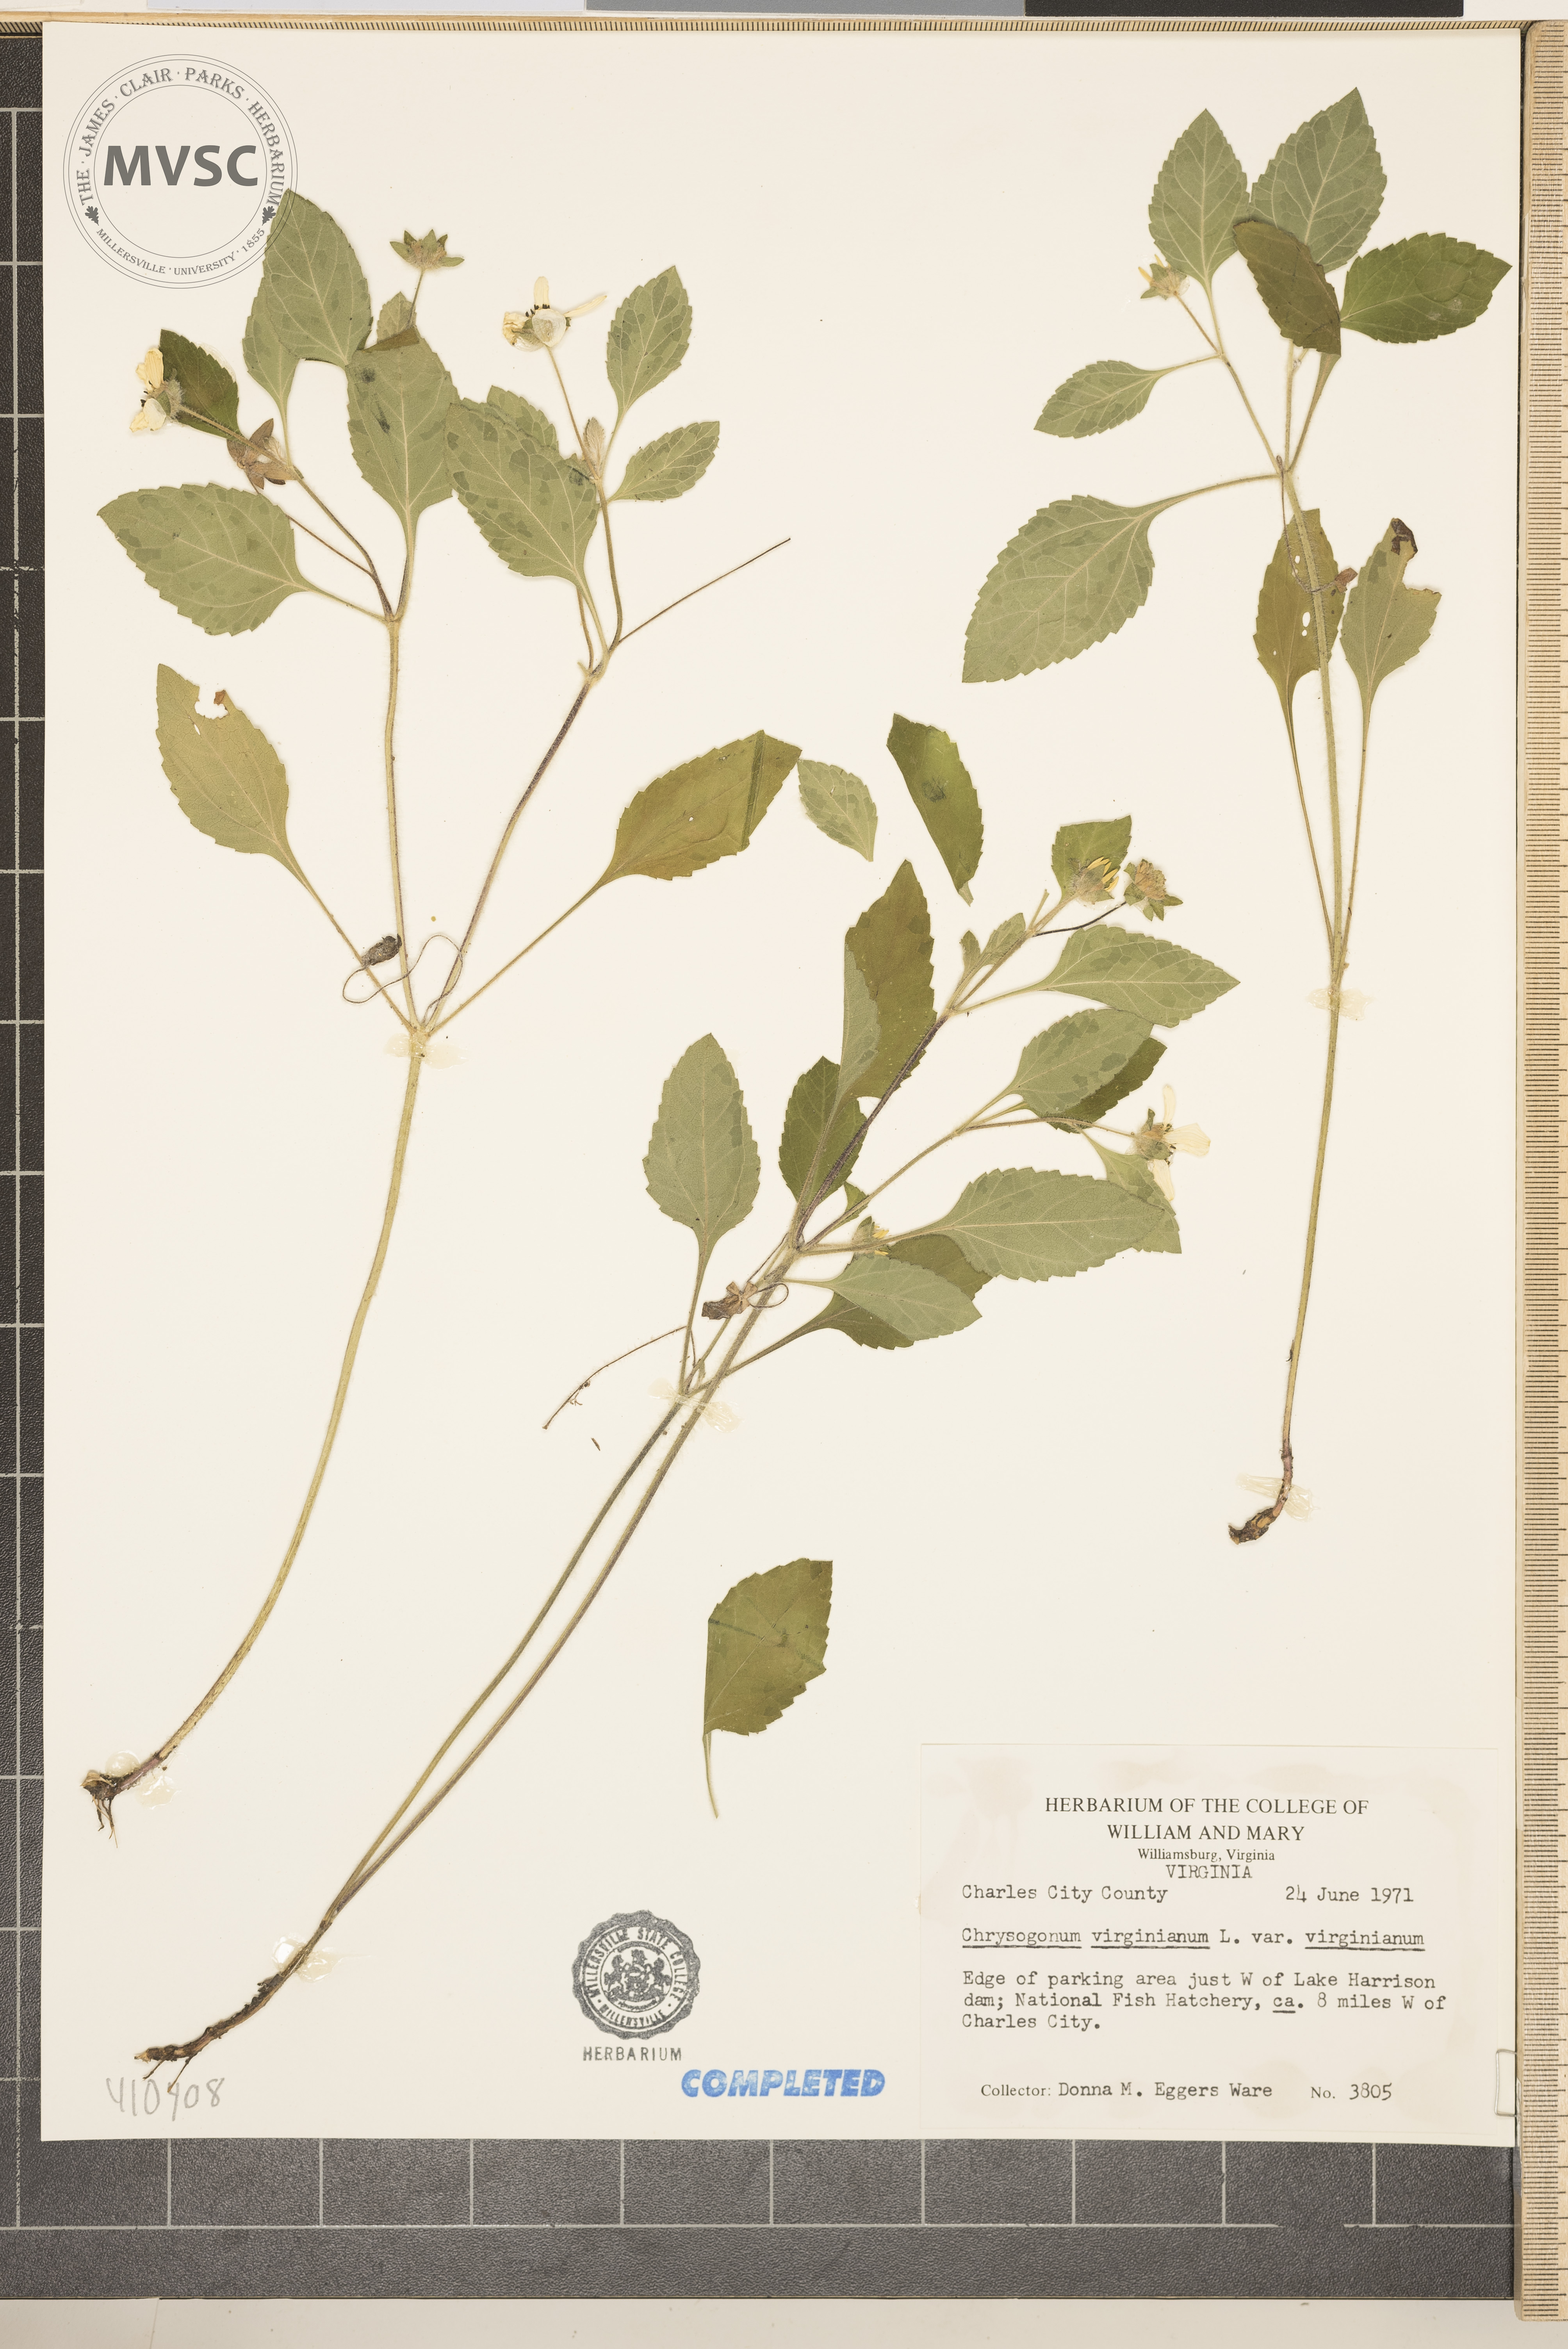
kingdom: Plantae
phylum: Tracheophyta
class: Magnoliopsida
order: Asterales
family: Asteraceae
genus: Chrysogonum
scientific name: Chrysogonum virginianum
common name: Golden-knee
